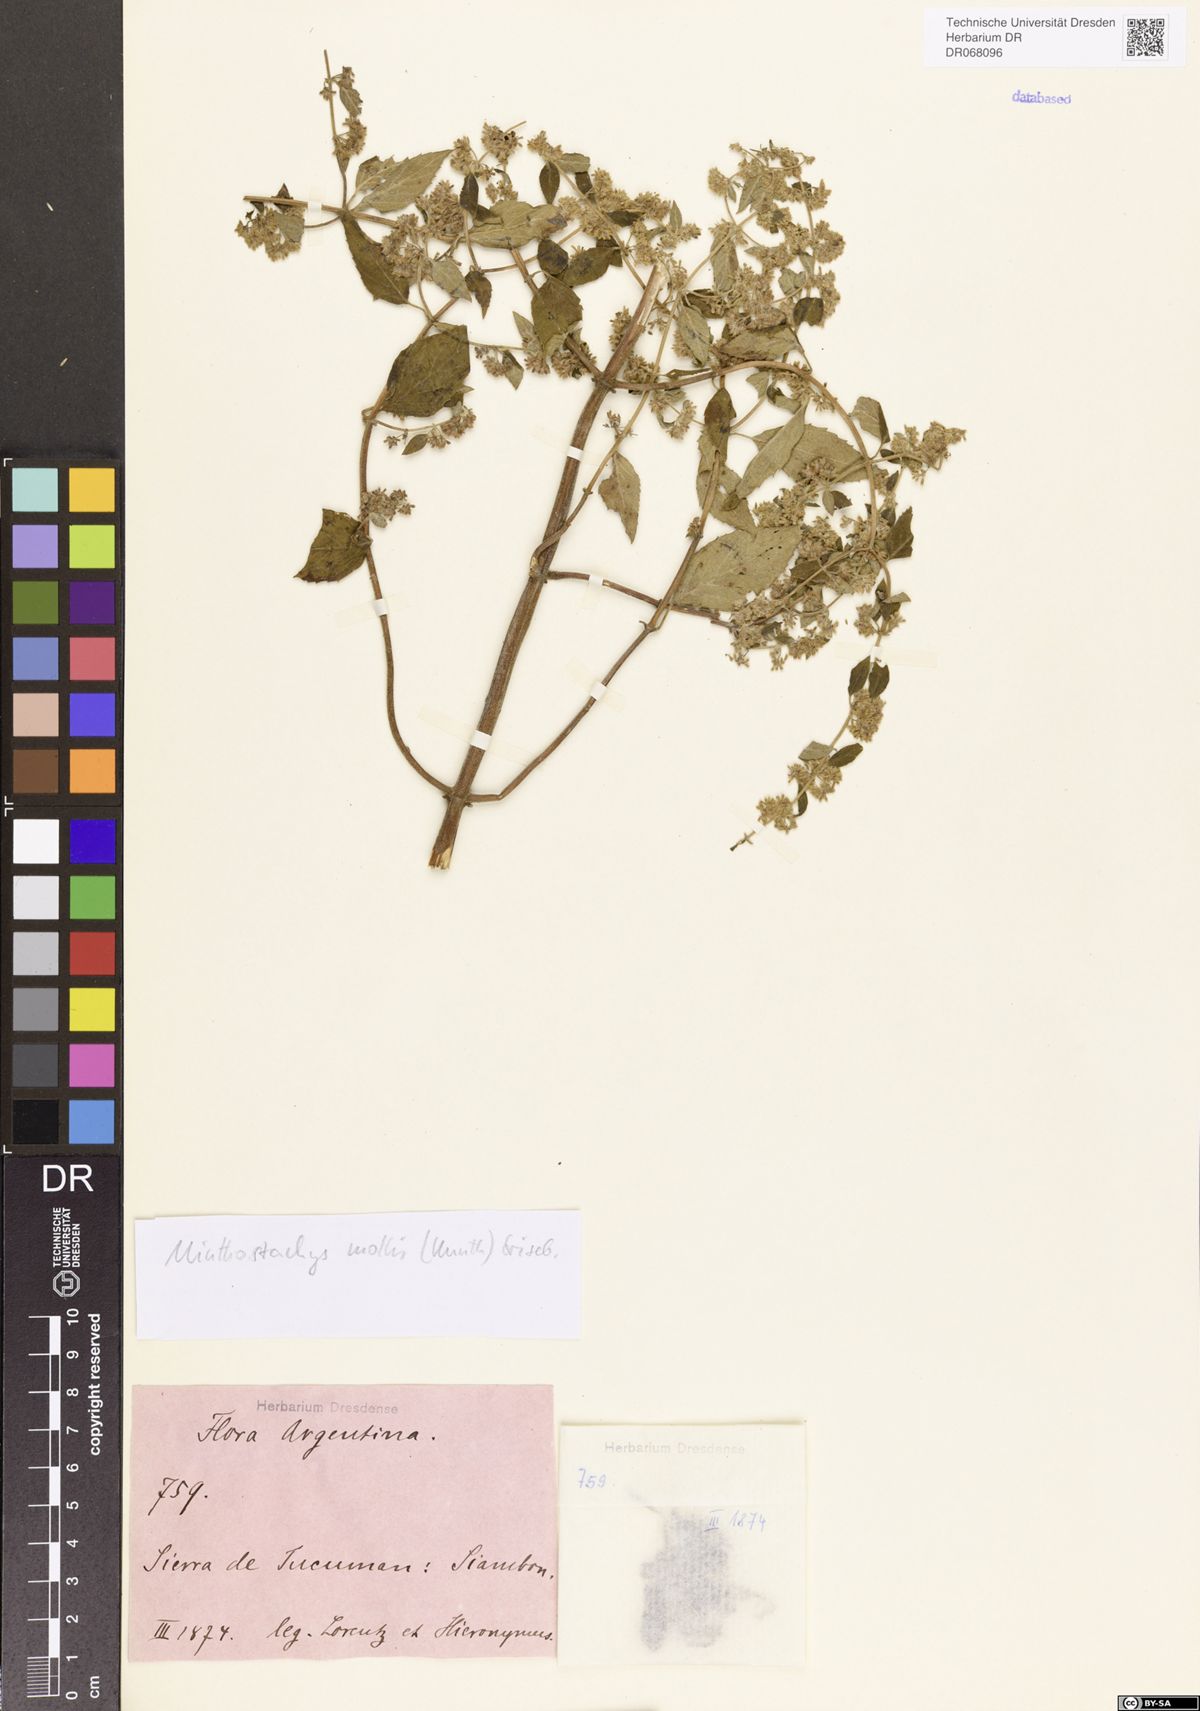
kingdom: Plantae
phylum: Tracheophyta
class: Magnoliopsida
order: Lamiales
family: Lamiaceae
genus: Minthostachys
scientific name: Minthostachys mollis
